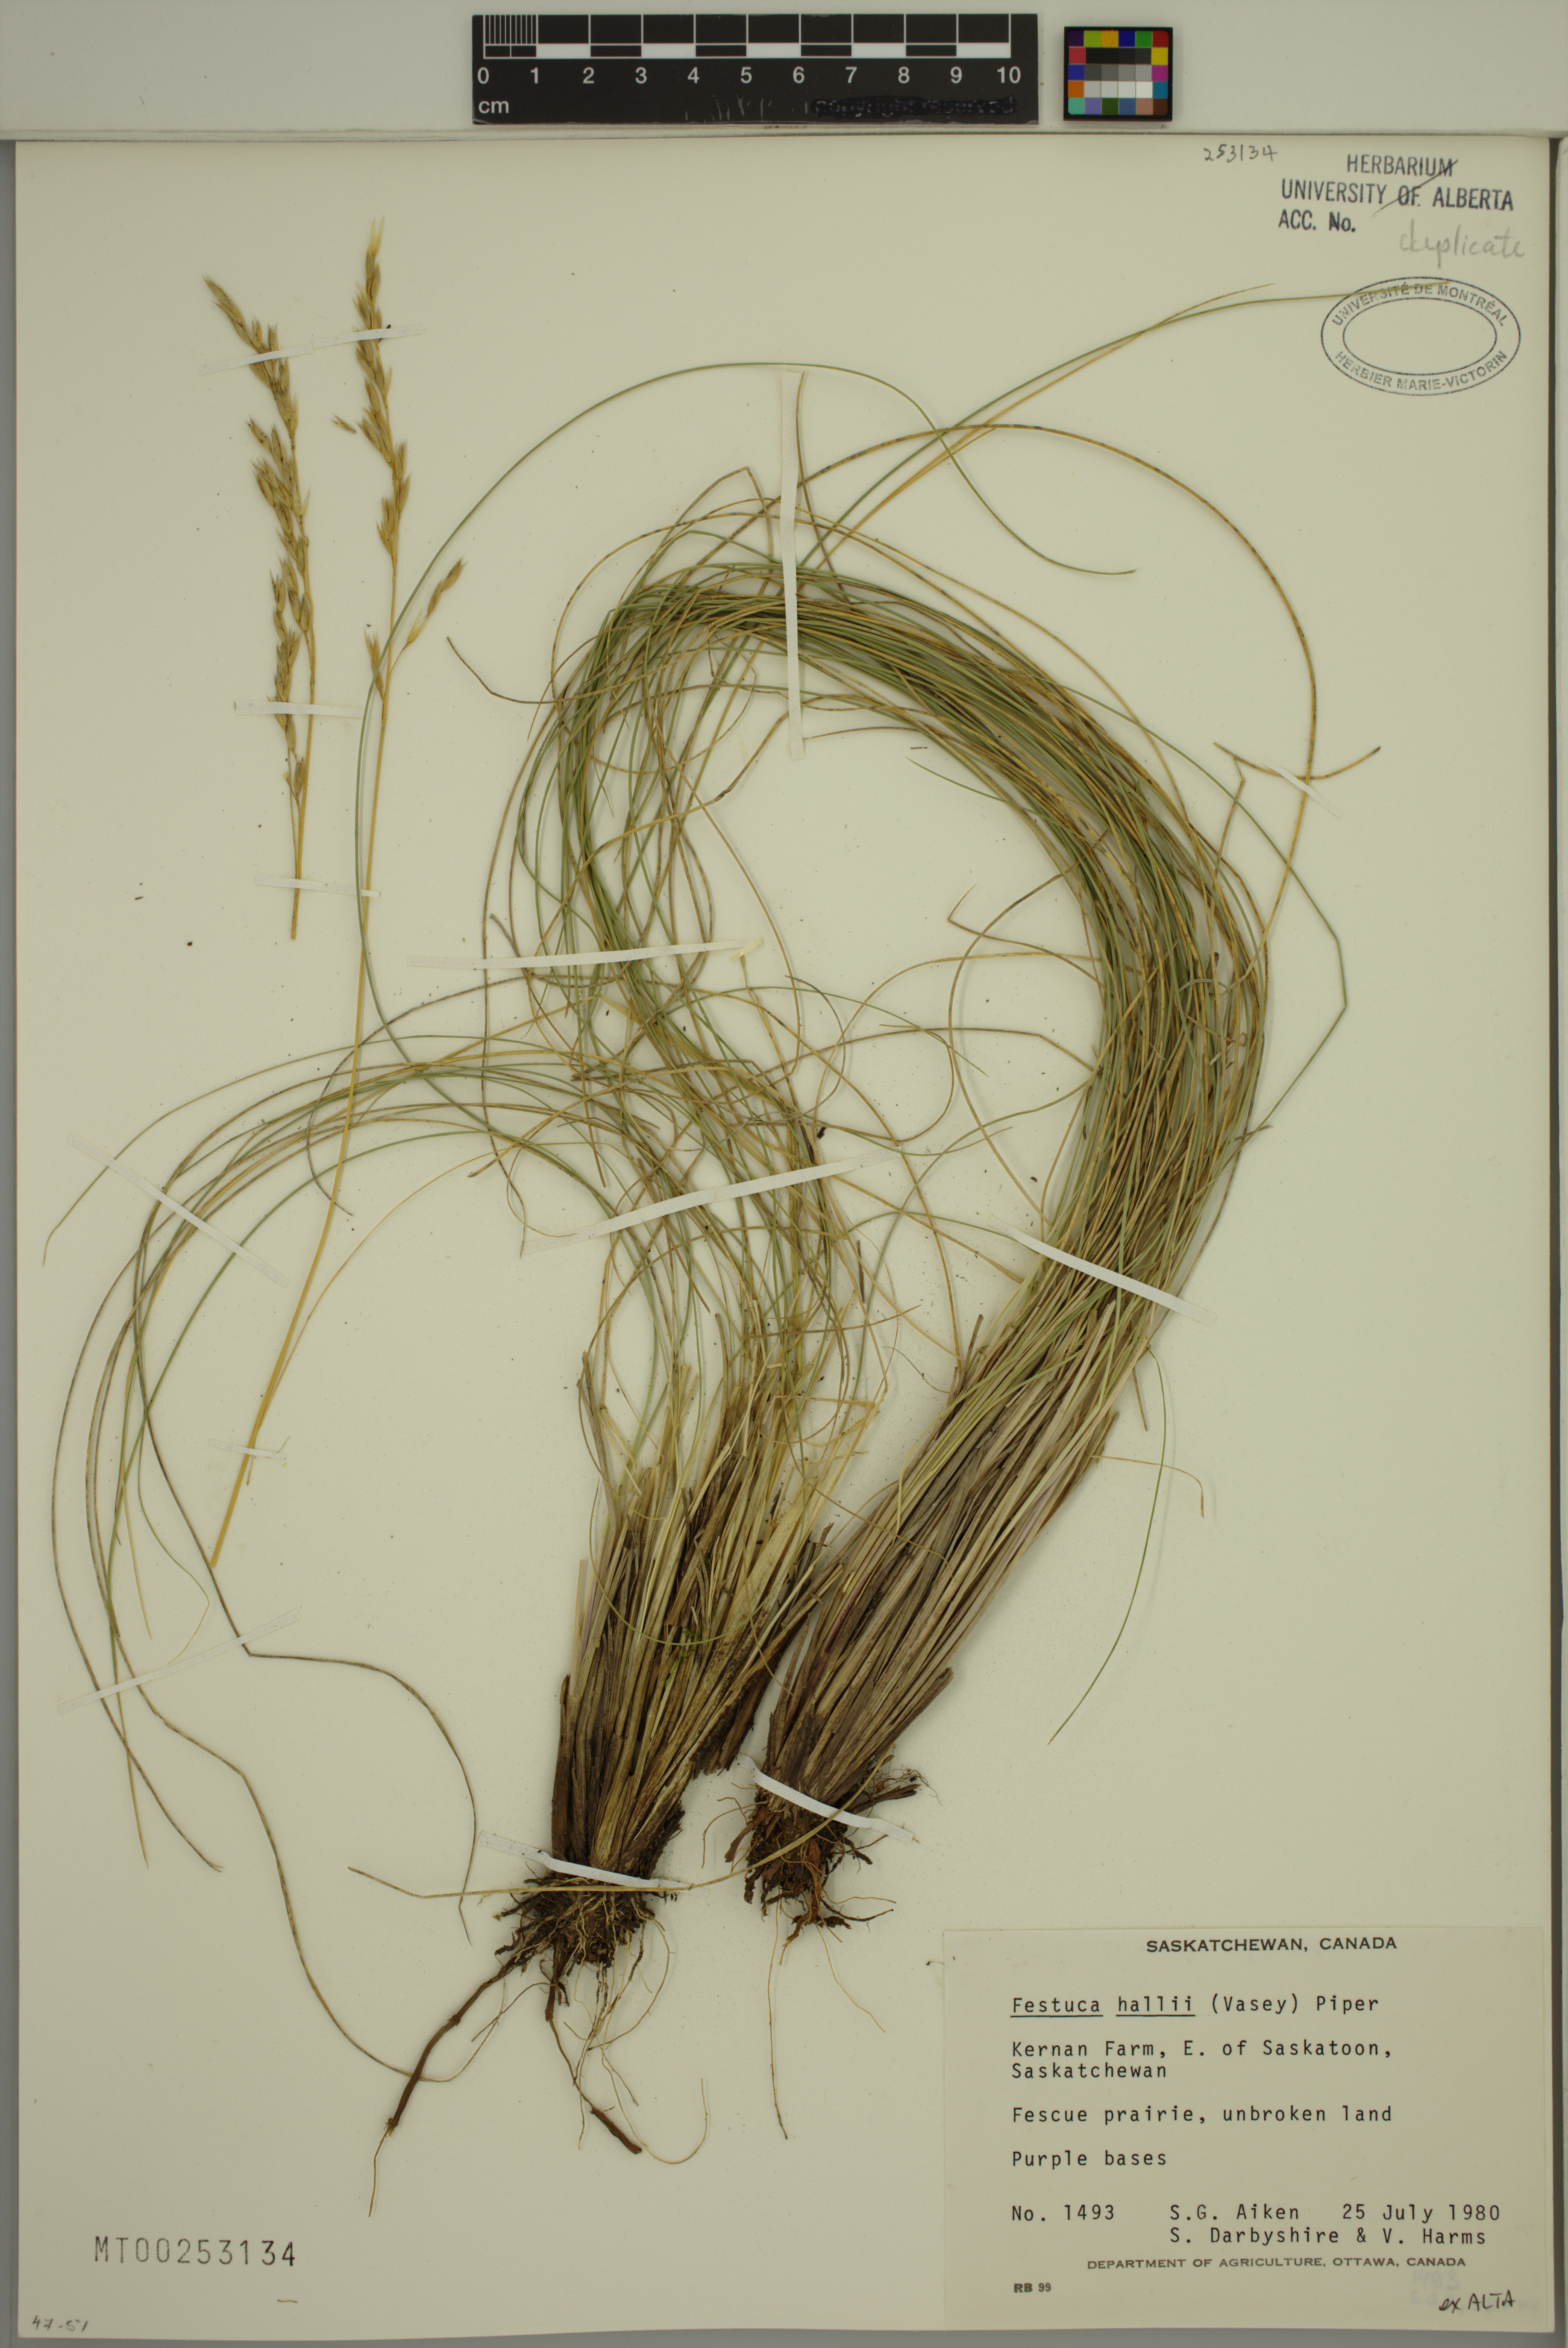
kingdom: Plantae
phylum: Tracheophyta
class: Liliopsida
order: Poales
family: Poaceae
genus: Festuca
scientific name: Festuca hallii
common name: Hall's fescue
